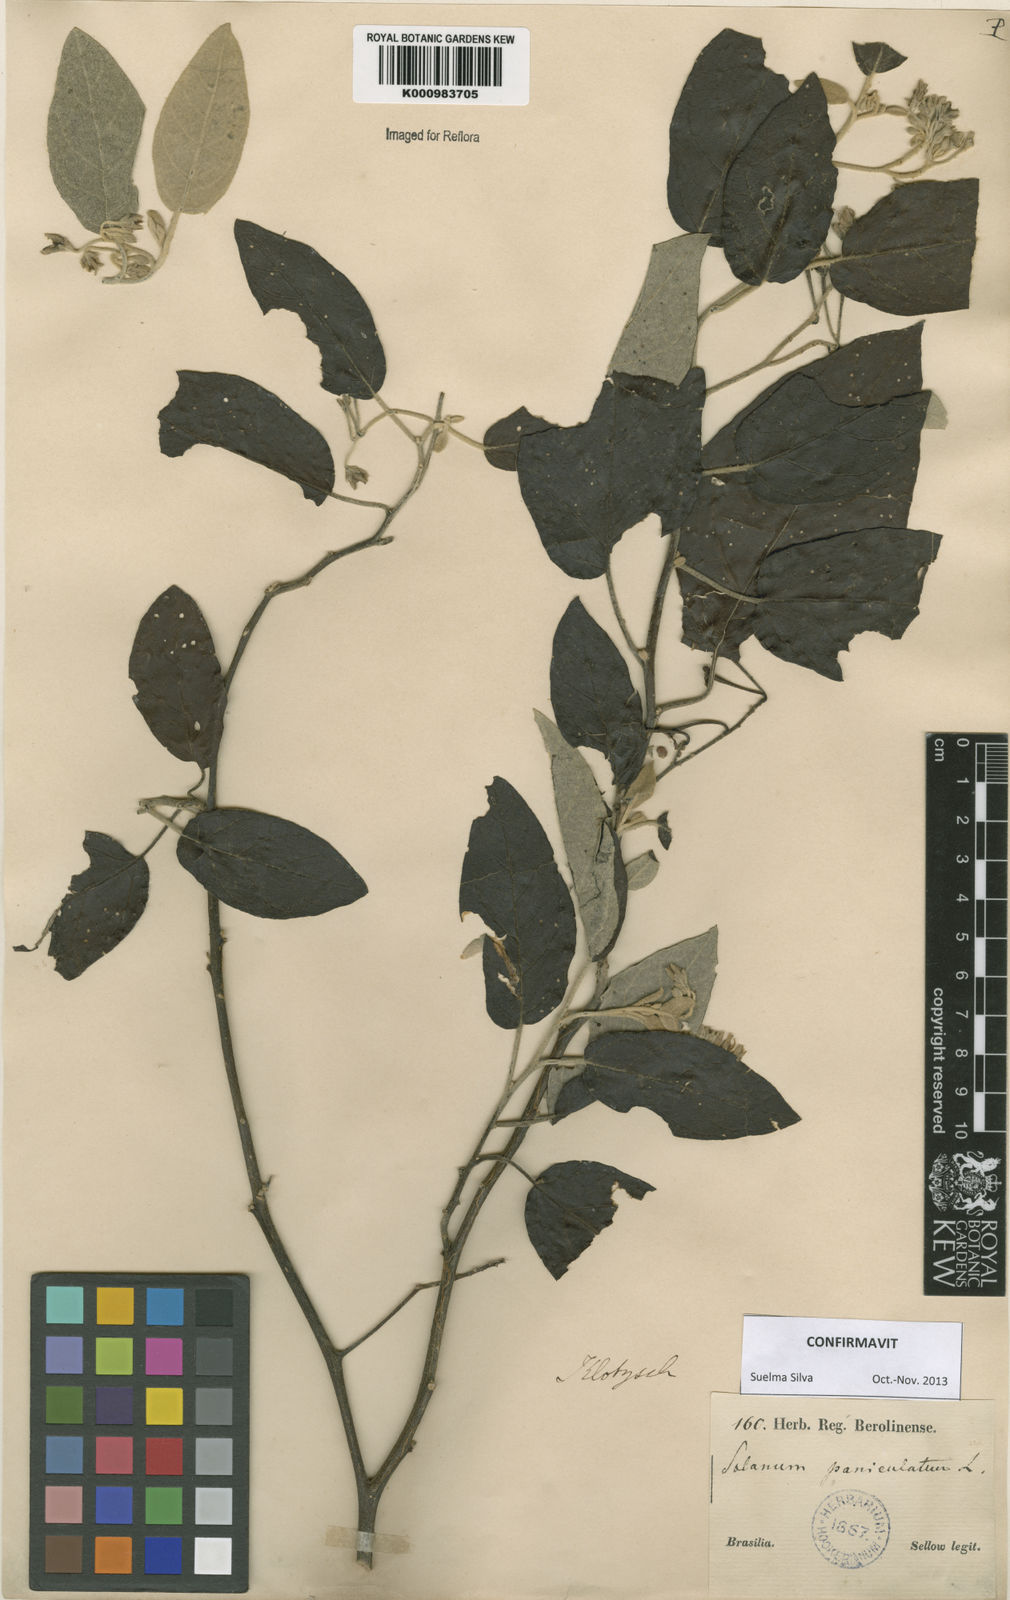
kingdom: Plantae
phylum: Tracheophyta
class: Magnoliopsida
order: Solanales
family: Solanaceae
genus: Solanum
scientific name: Solanum paniculatum
